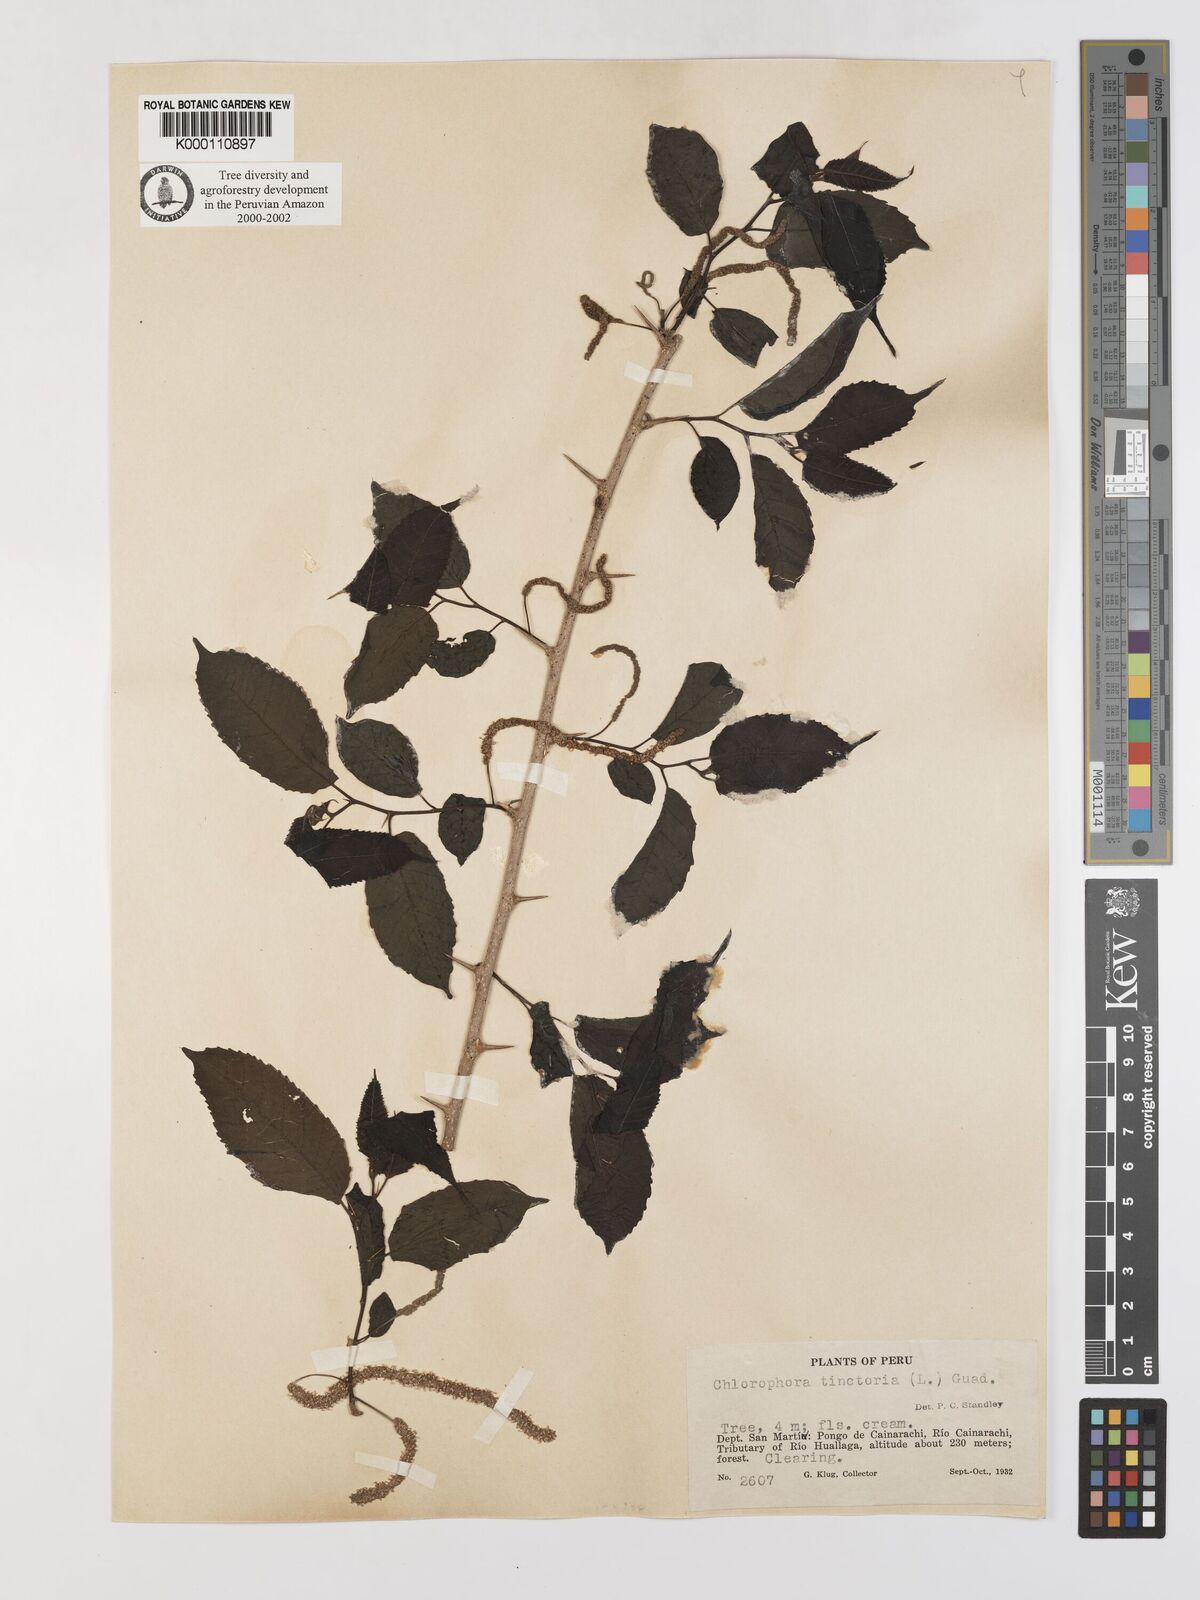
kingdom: Plantae
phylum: Tracheophyta
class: Magnoliopsida
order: Rosales
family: Moraceae
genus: Maclura
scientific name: Maclura tinctoria
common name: Old fustic
